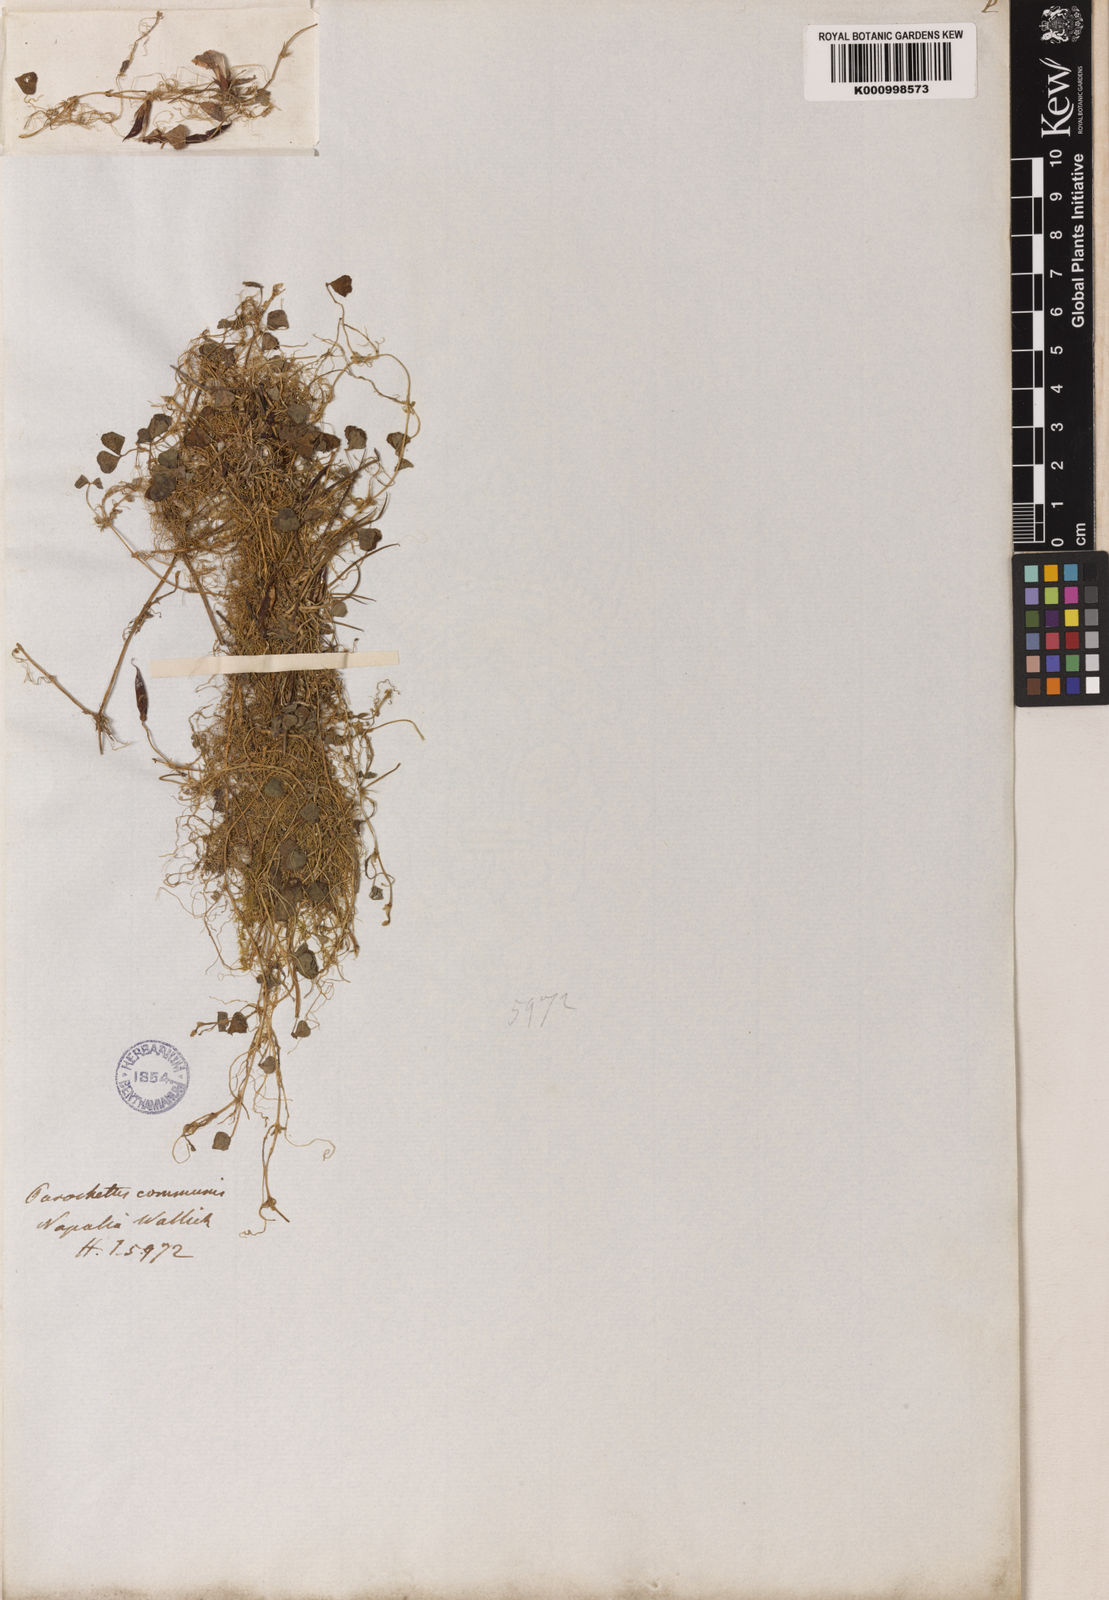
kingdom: Plantae
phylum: Tracheophyta
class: Magnoliopsida
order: Fabales
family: Fabaceae
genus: Parochetus
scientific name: Parochetus communis
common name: Blue oxalis
